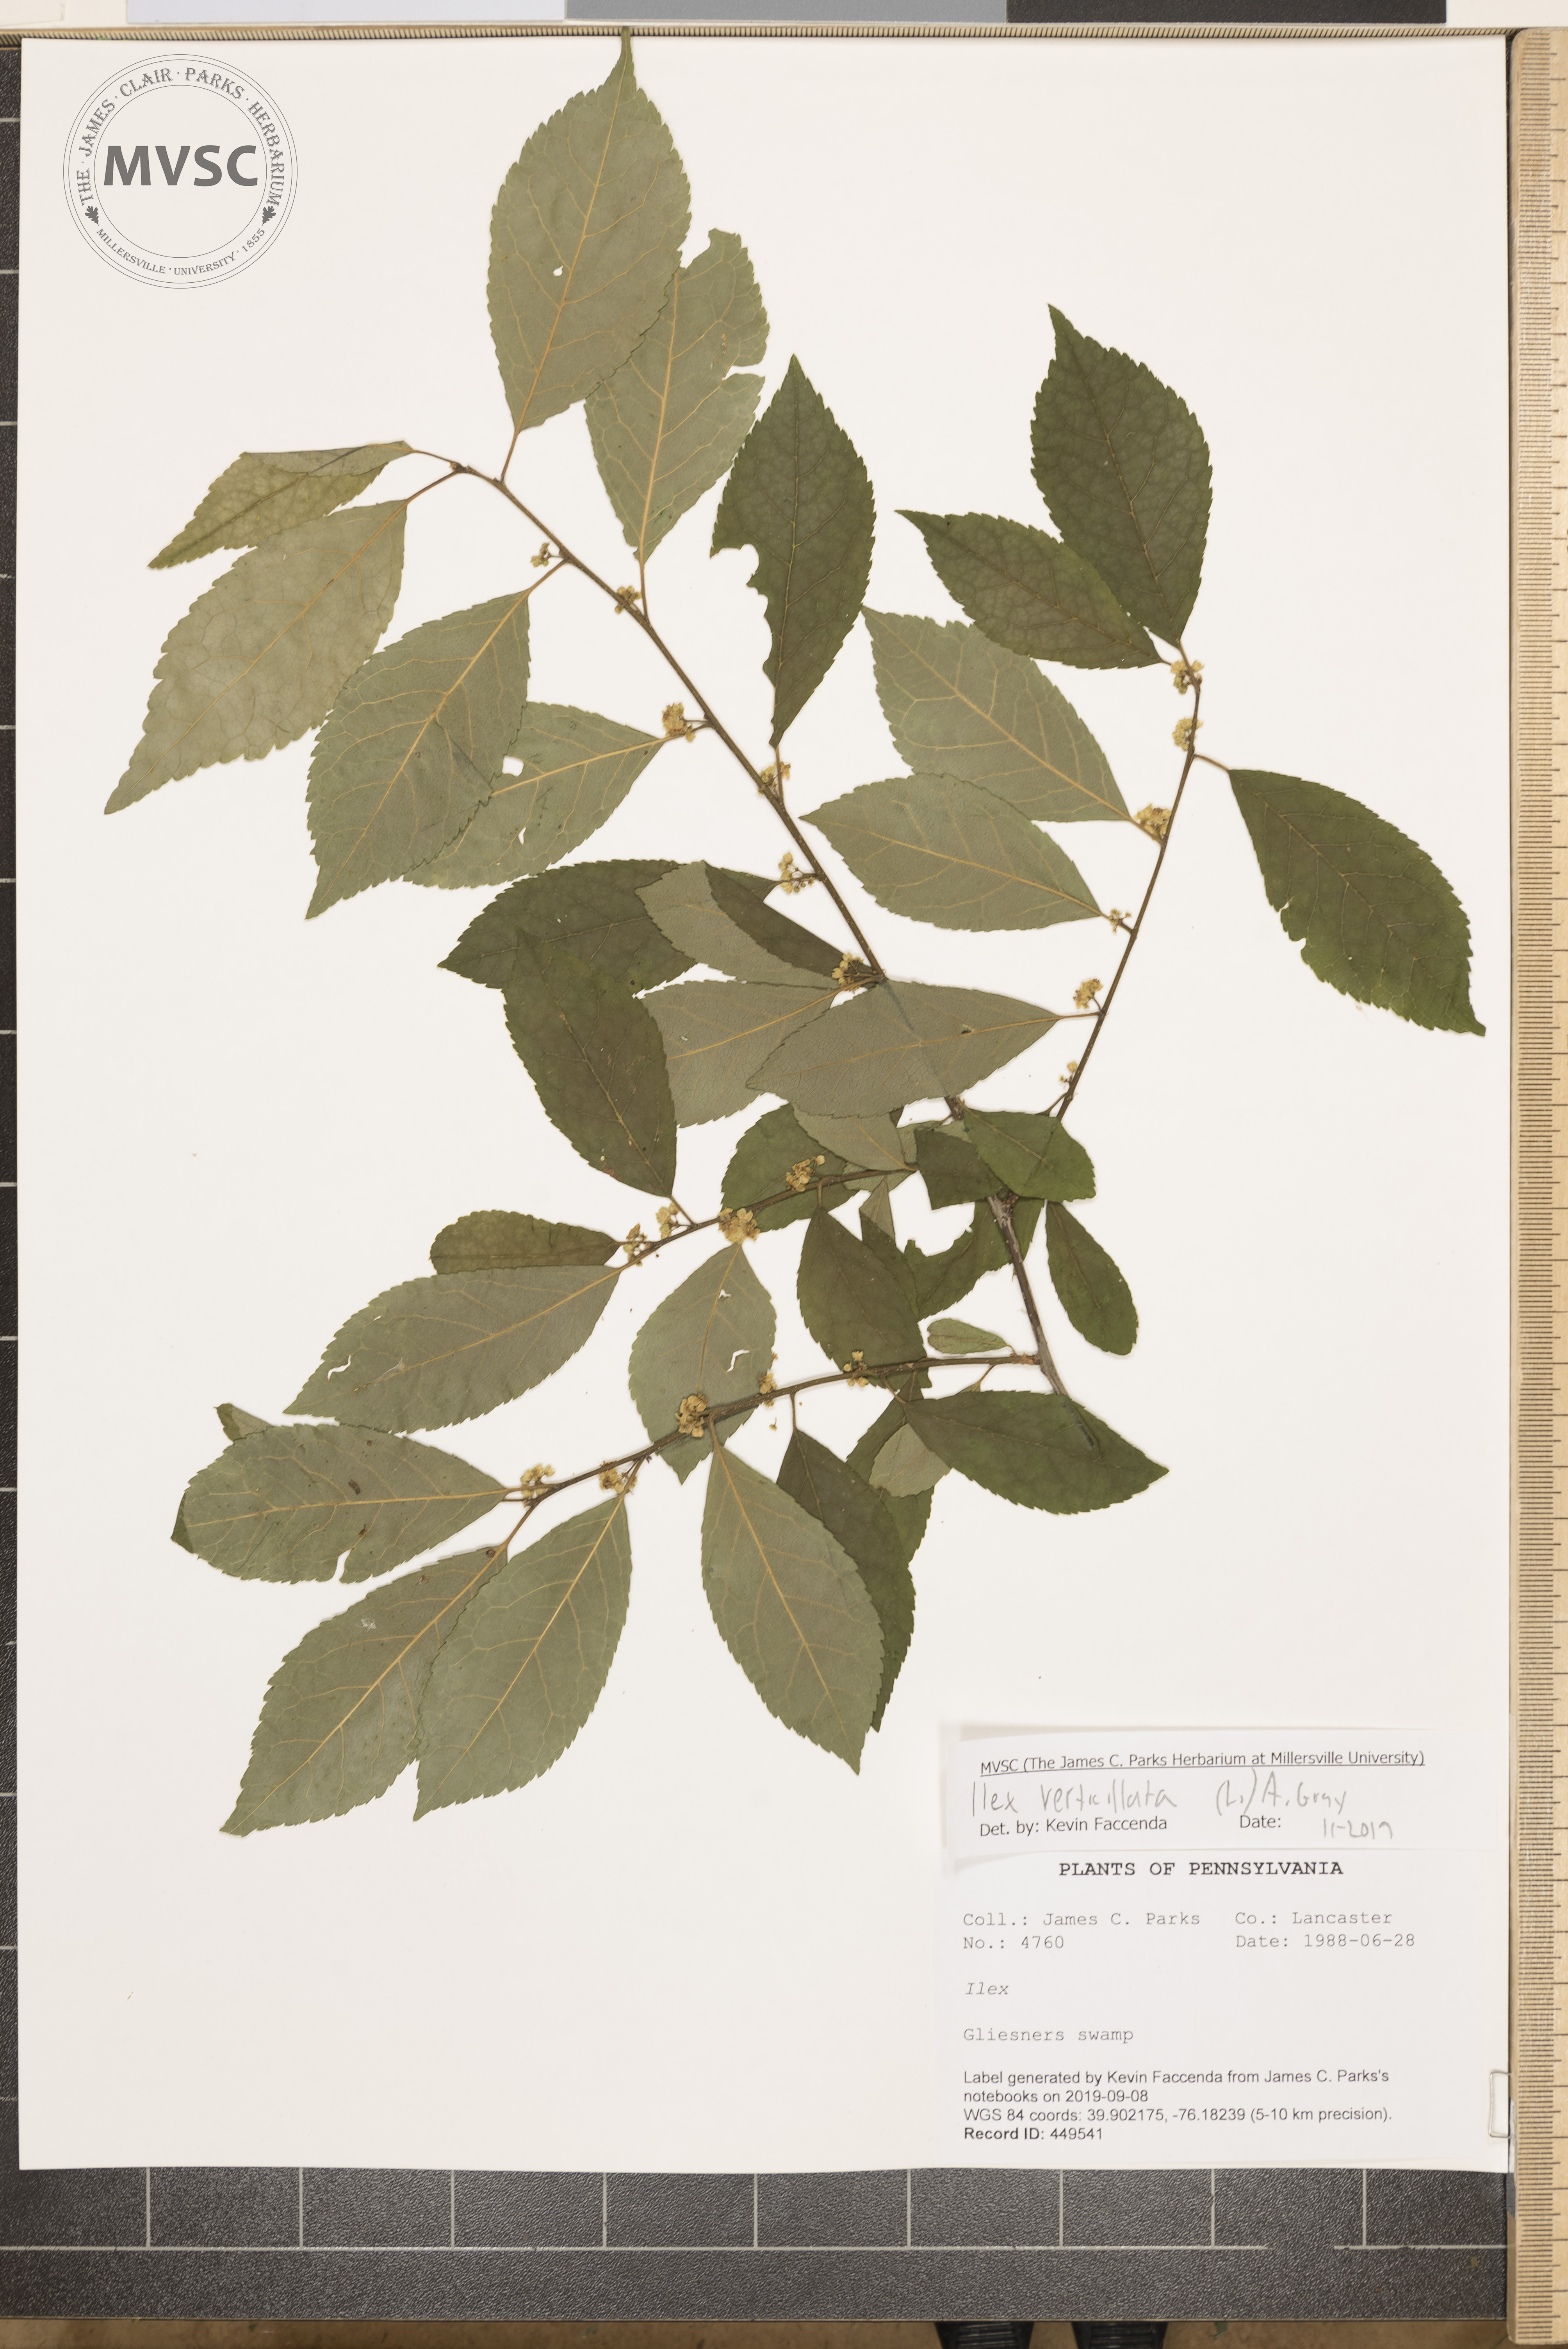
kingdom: Plantae
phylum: Tracheophyta
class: Magnoliopsida
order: Aquifoliales
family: Aquifoliaceae
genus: Ilex
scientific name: Ilex verticillata
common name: Virginia winterberry
